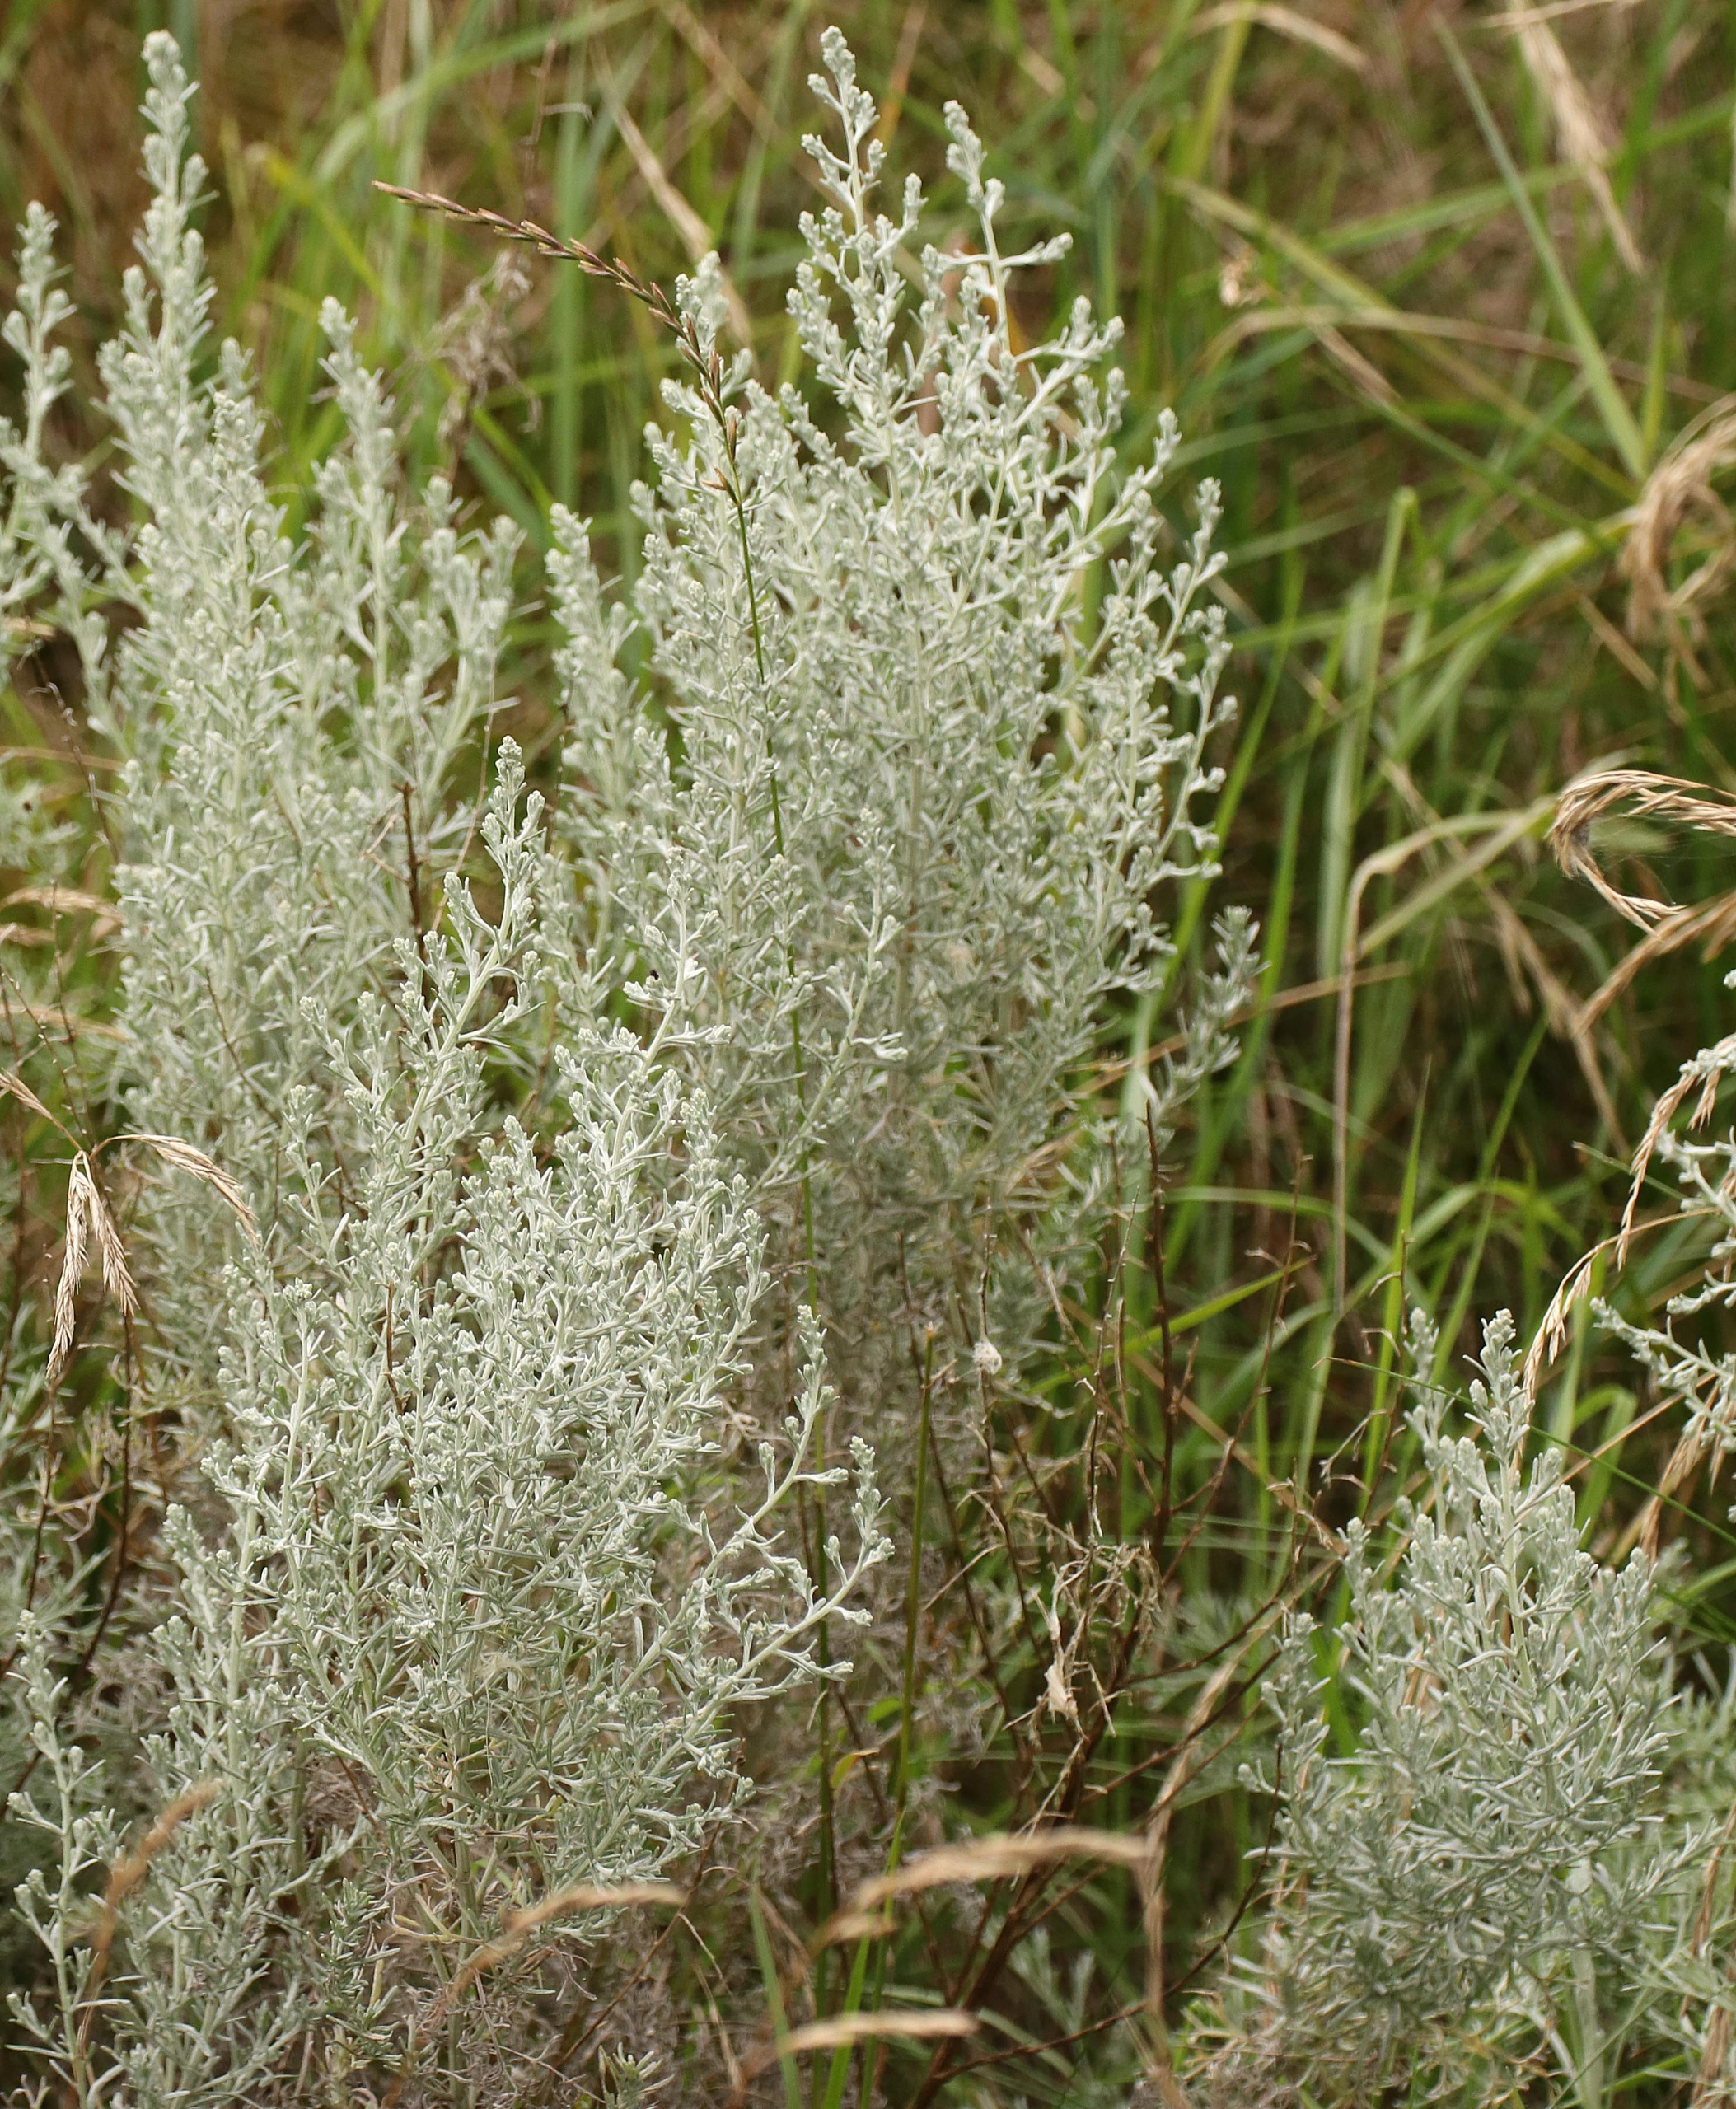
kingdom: Plantae
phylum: Tracheophyta
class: Magnoliopsida
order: Asterales
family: Asteraceae
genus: Artemisia
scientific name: Artemisia maritima
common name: Strandmalurt
